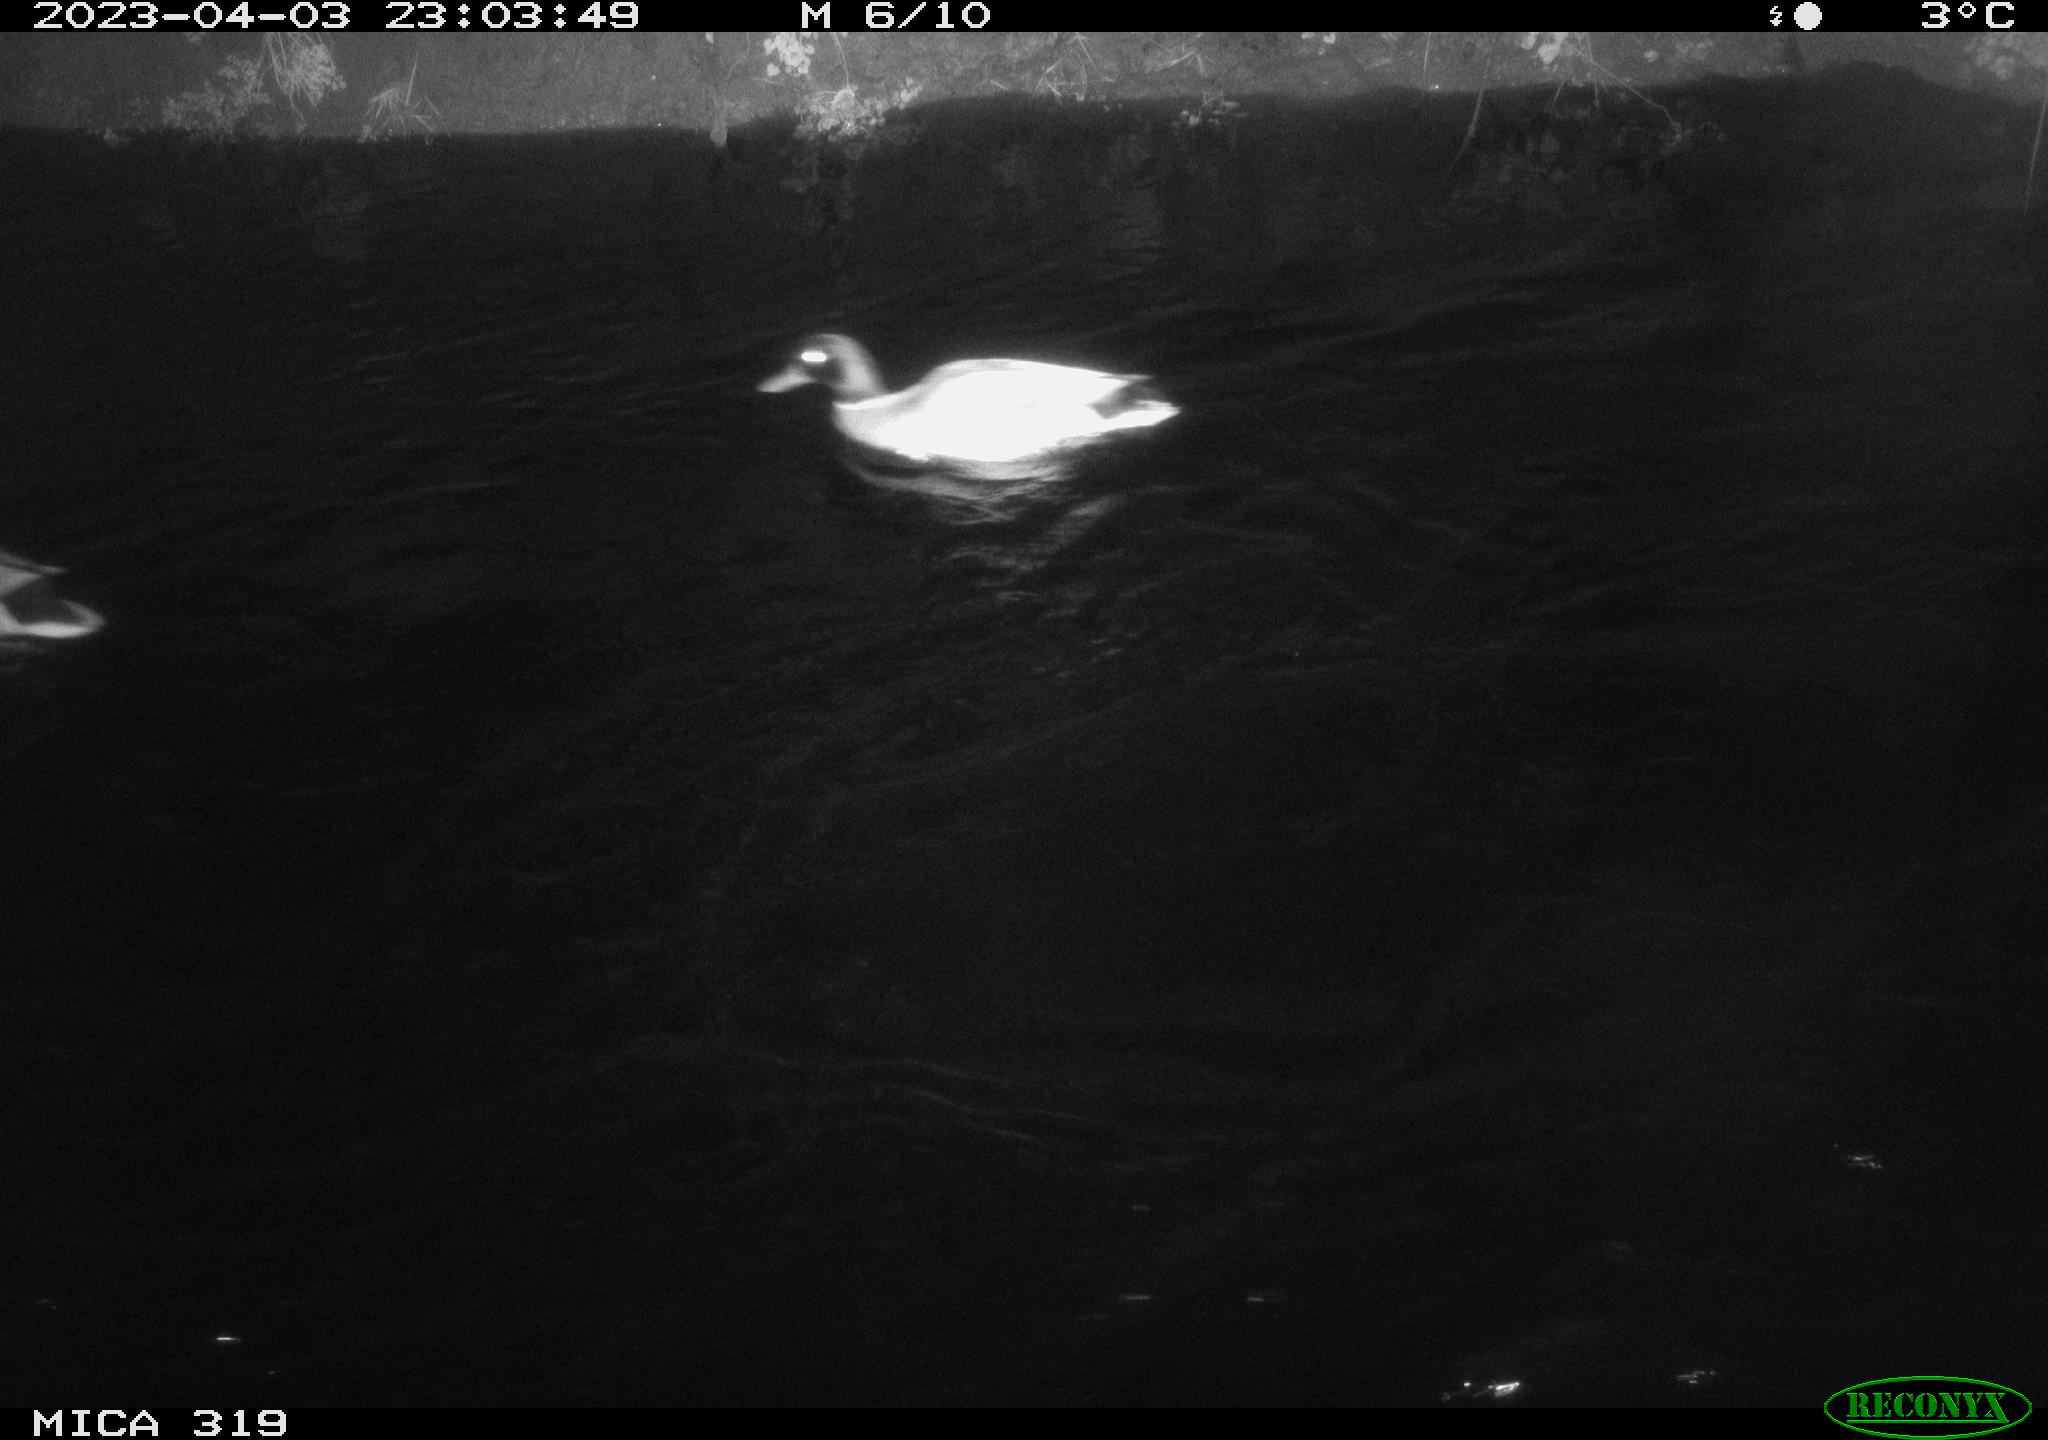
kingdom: Animalia
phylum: Chordata
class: Aves
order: Anseriformes
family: Anatidae
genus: Anas
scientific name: Anas
